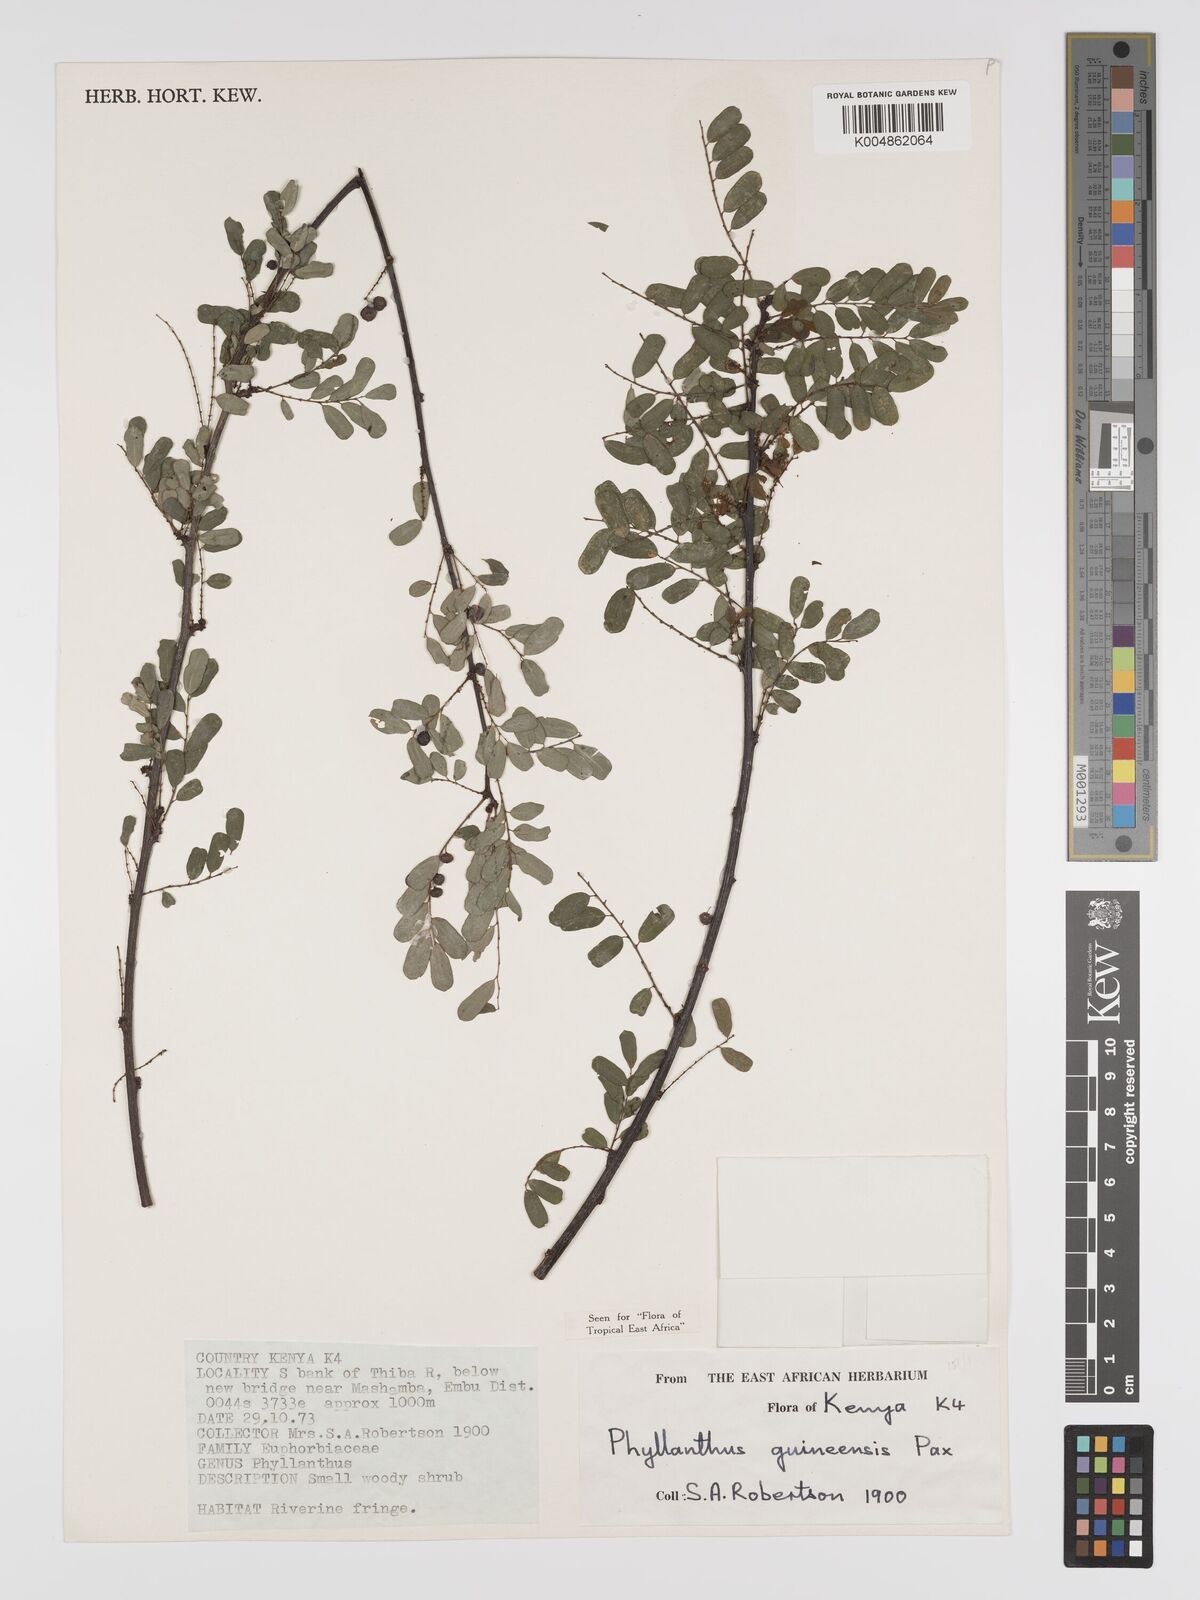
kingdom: Plantae
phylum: Tracheophyta
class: Magnoliopsida
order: Malpighiales
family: Phyllanthaceae
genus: Phyllanthus
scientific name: Phyllanthus ovalifolius
